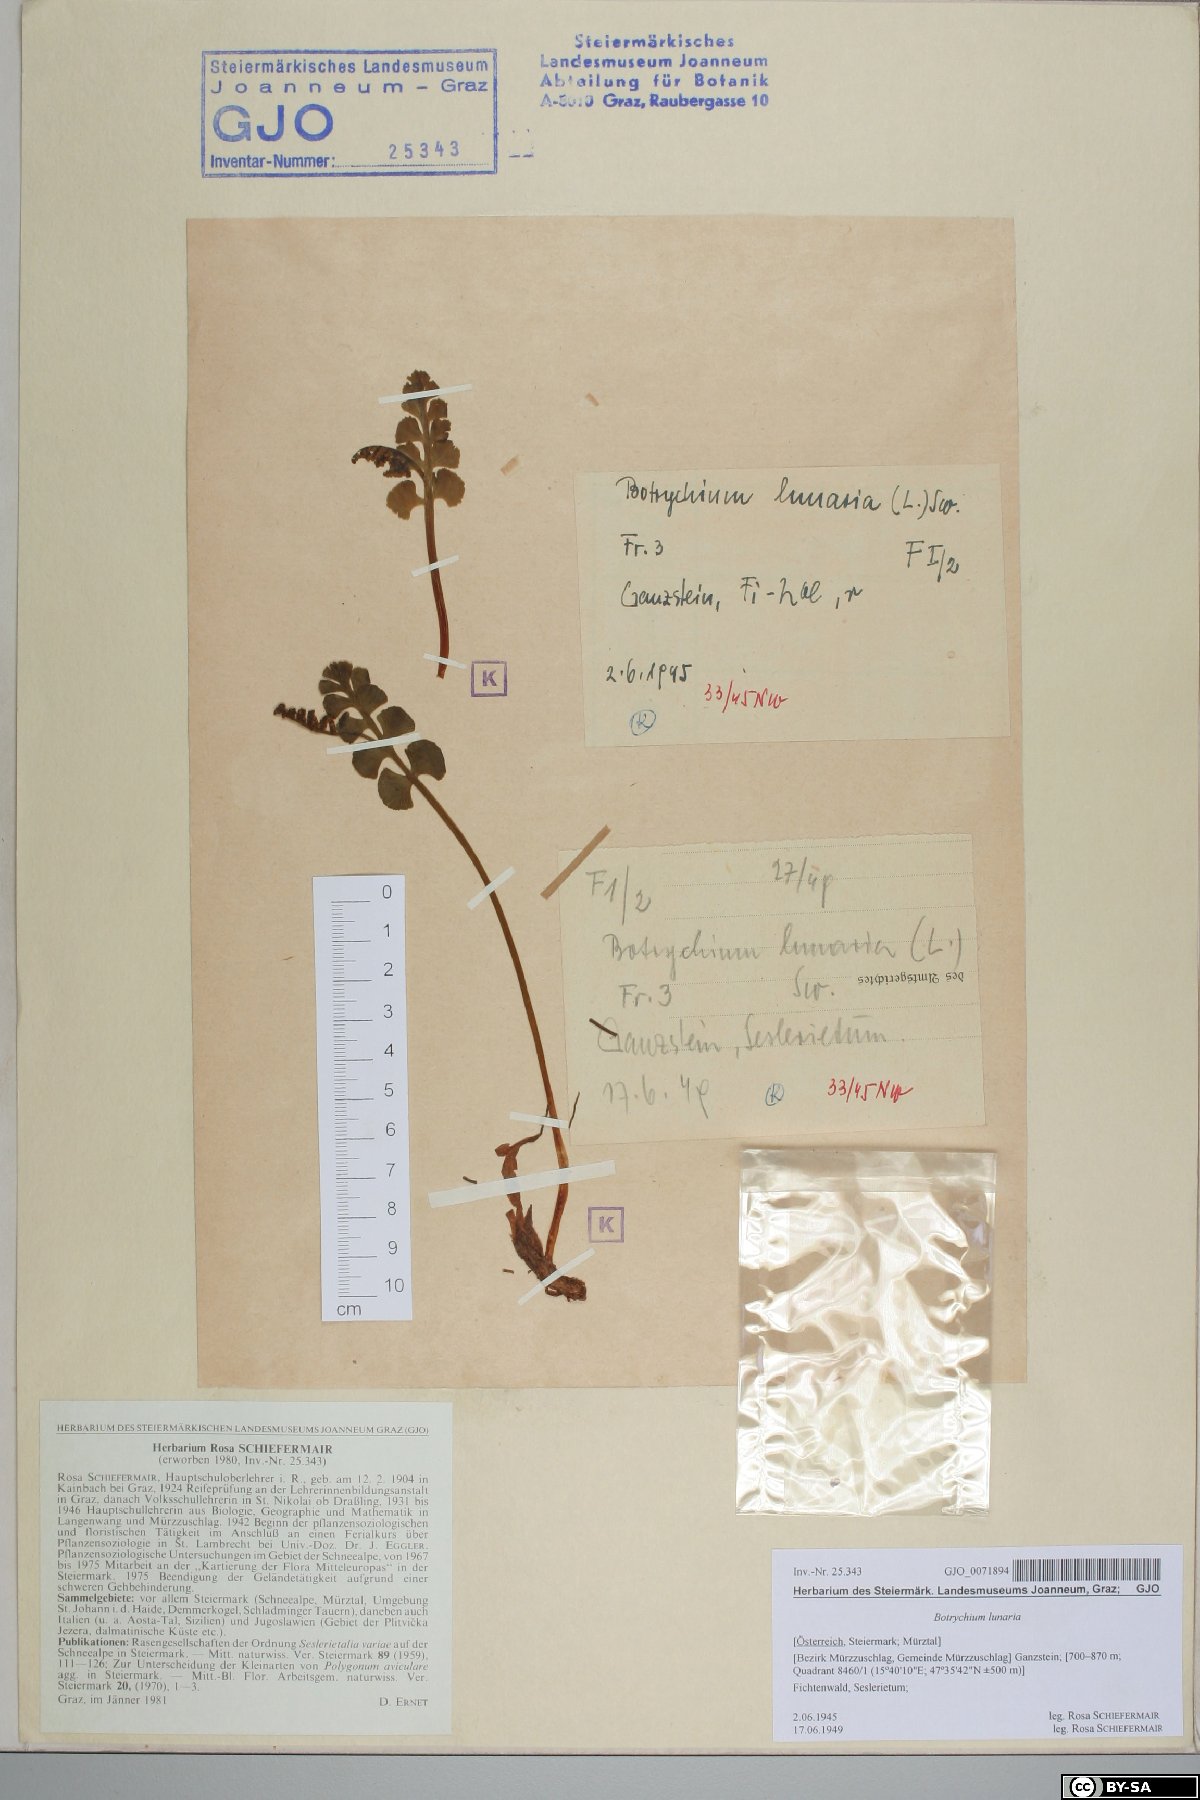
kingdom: Plantae
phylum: Tracheophyta
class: Polypodiopsida
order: Ophioglossales
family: Ophioglossaceae
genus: Botrychium
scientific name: Botrychium lunaria
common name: Moonwort
